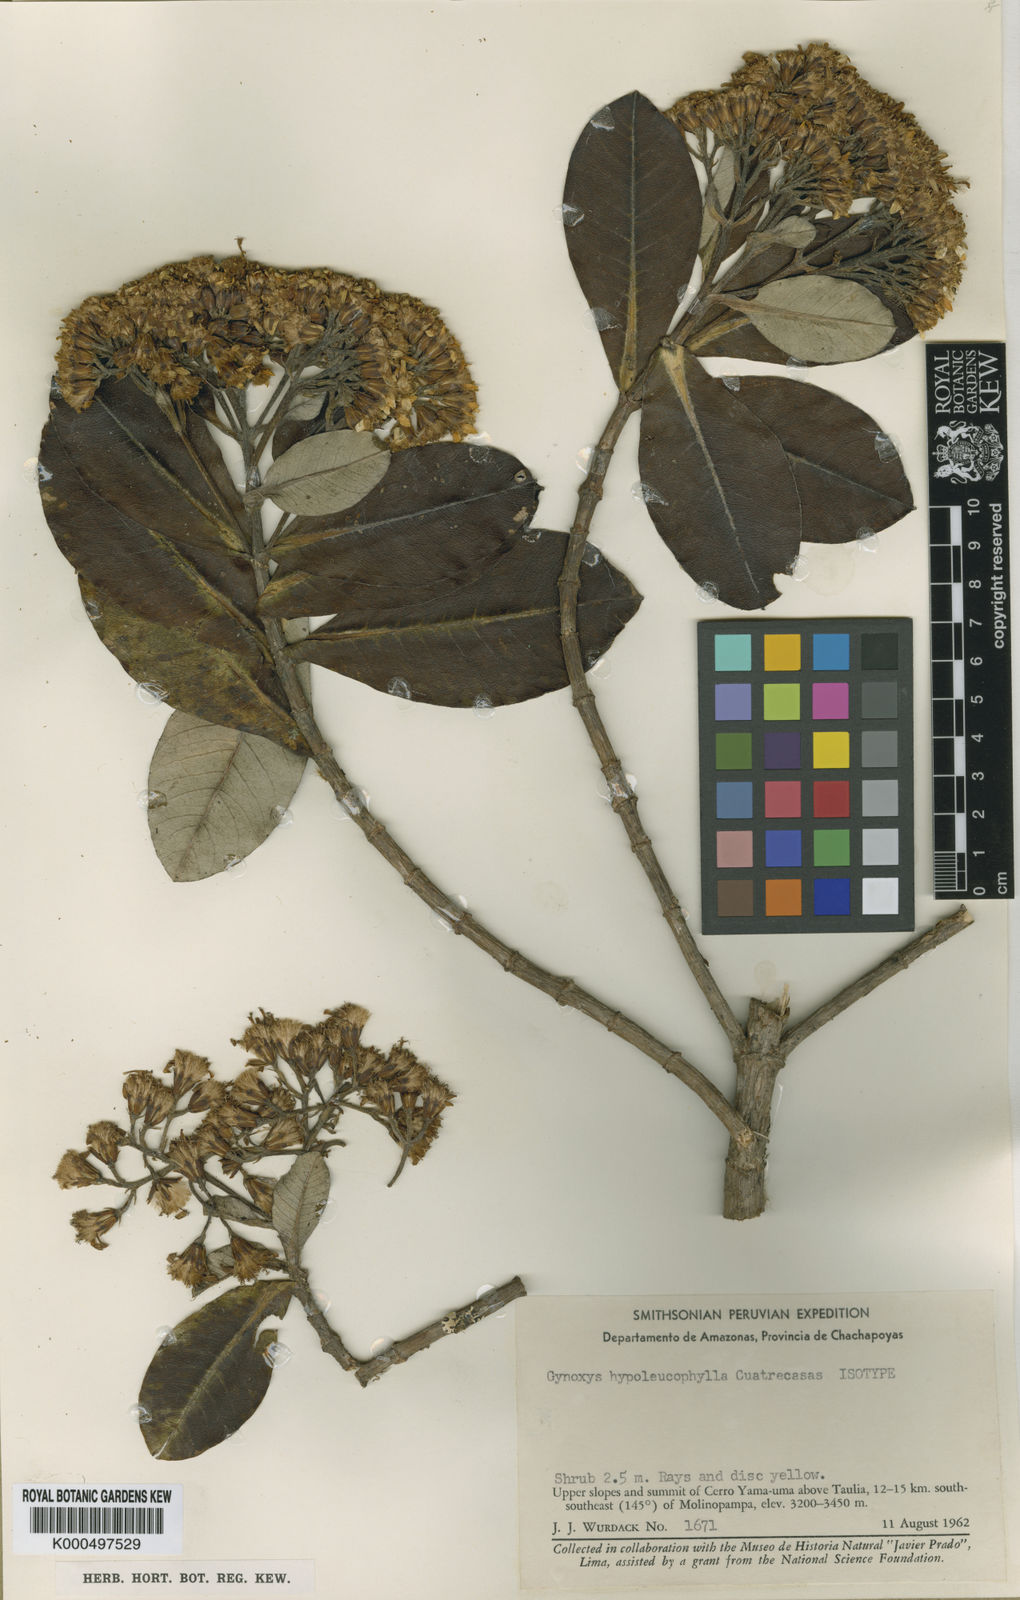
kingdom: Plantae
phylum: Tracheophyta
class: Magnoliopsida
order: Asterales
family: Asteraceae
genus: Gynoxys
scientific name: Gynoxys hypoleucophylla
